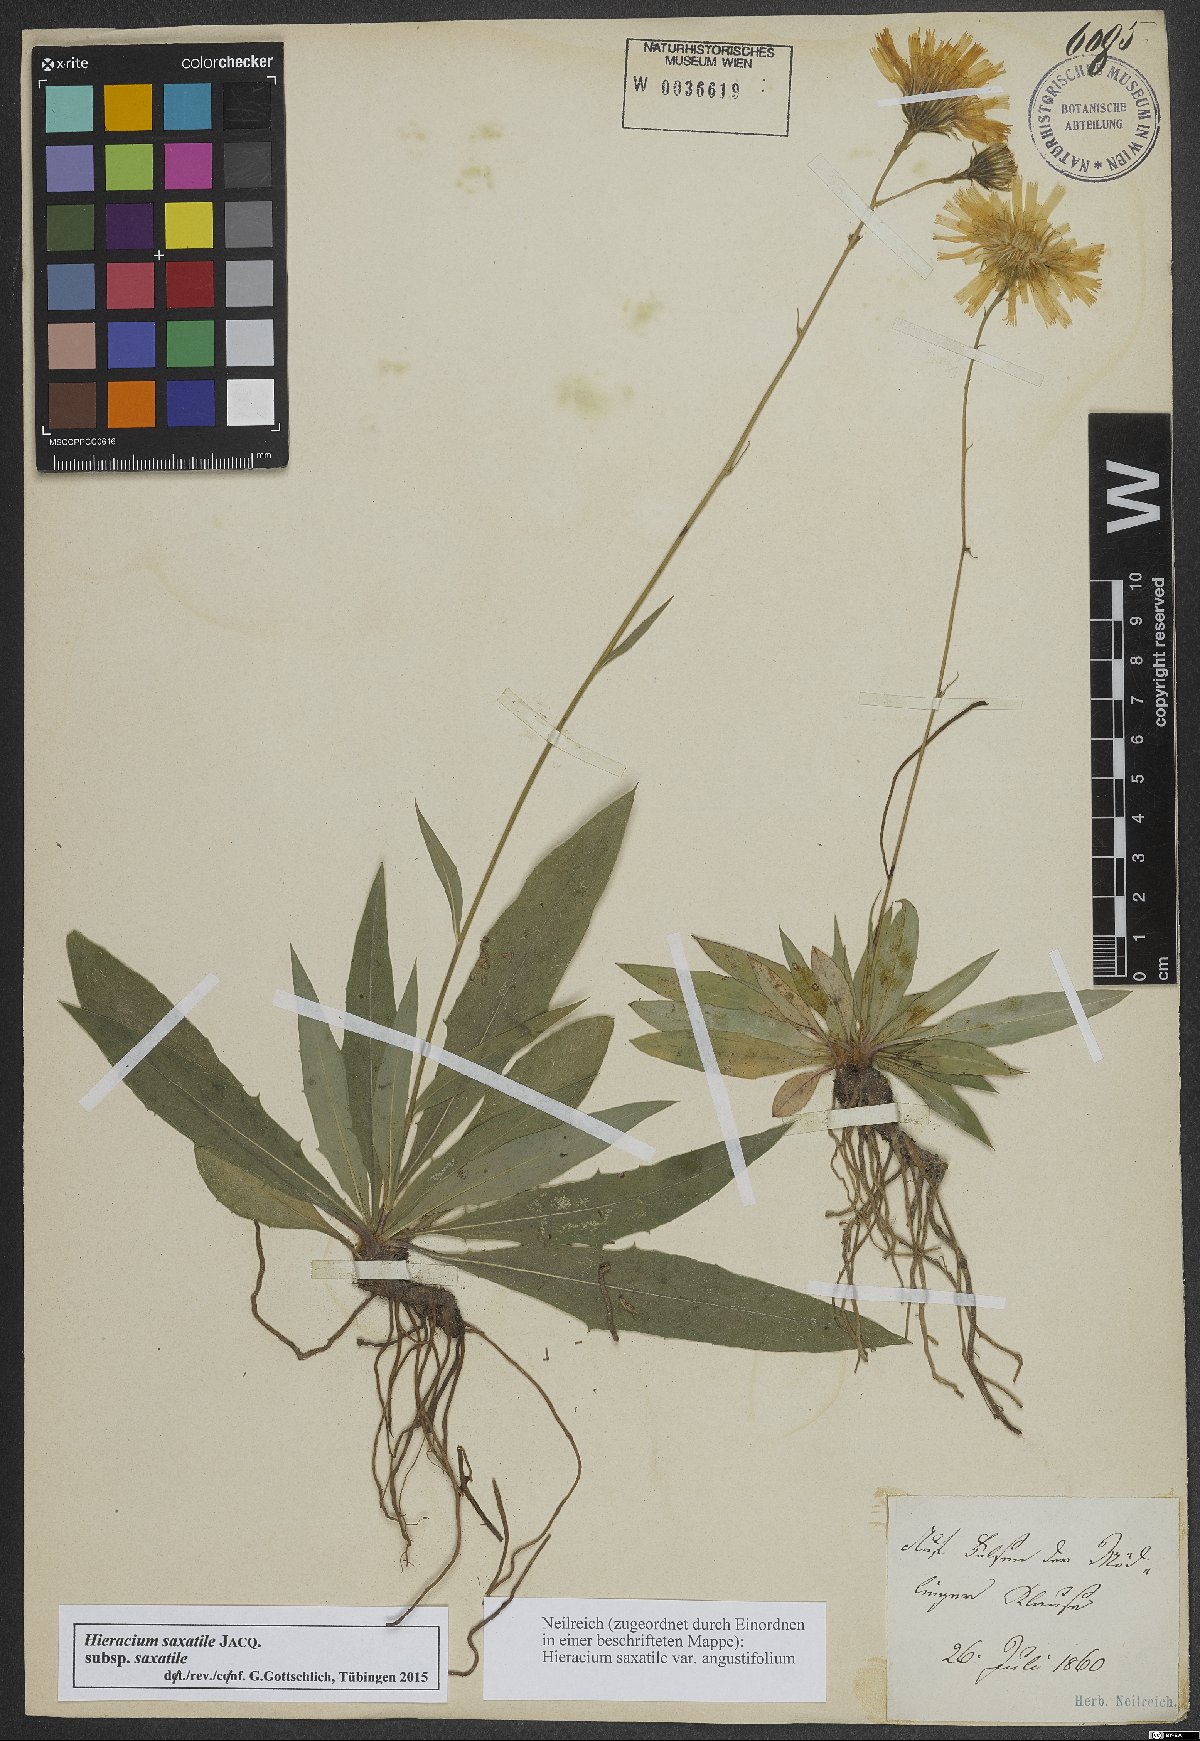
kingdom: Plantae
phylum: Tracheophyta
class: Magnoliopsida
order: Asterales
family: Asteraceae
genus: Hieracium
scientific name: Hieracium saxatile
